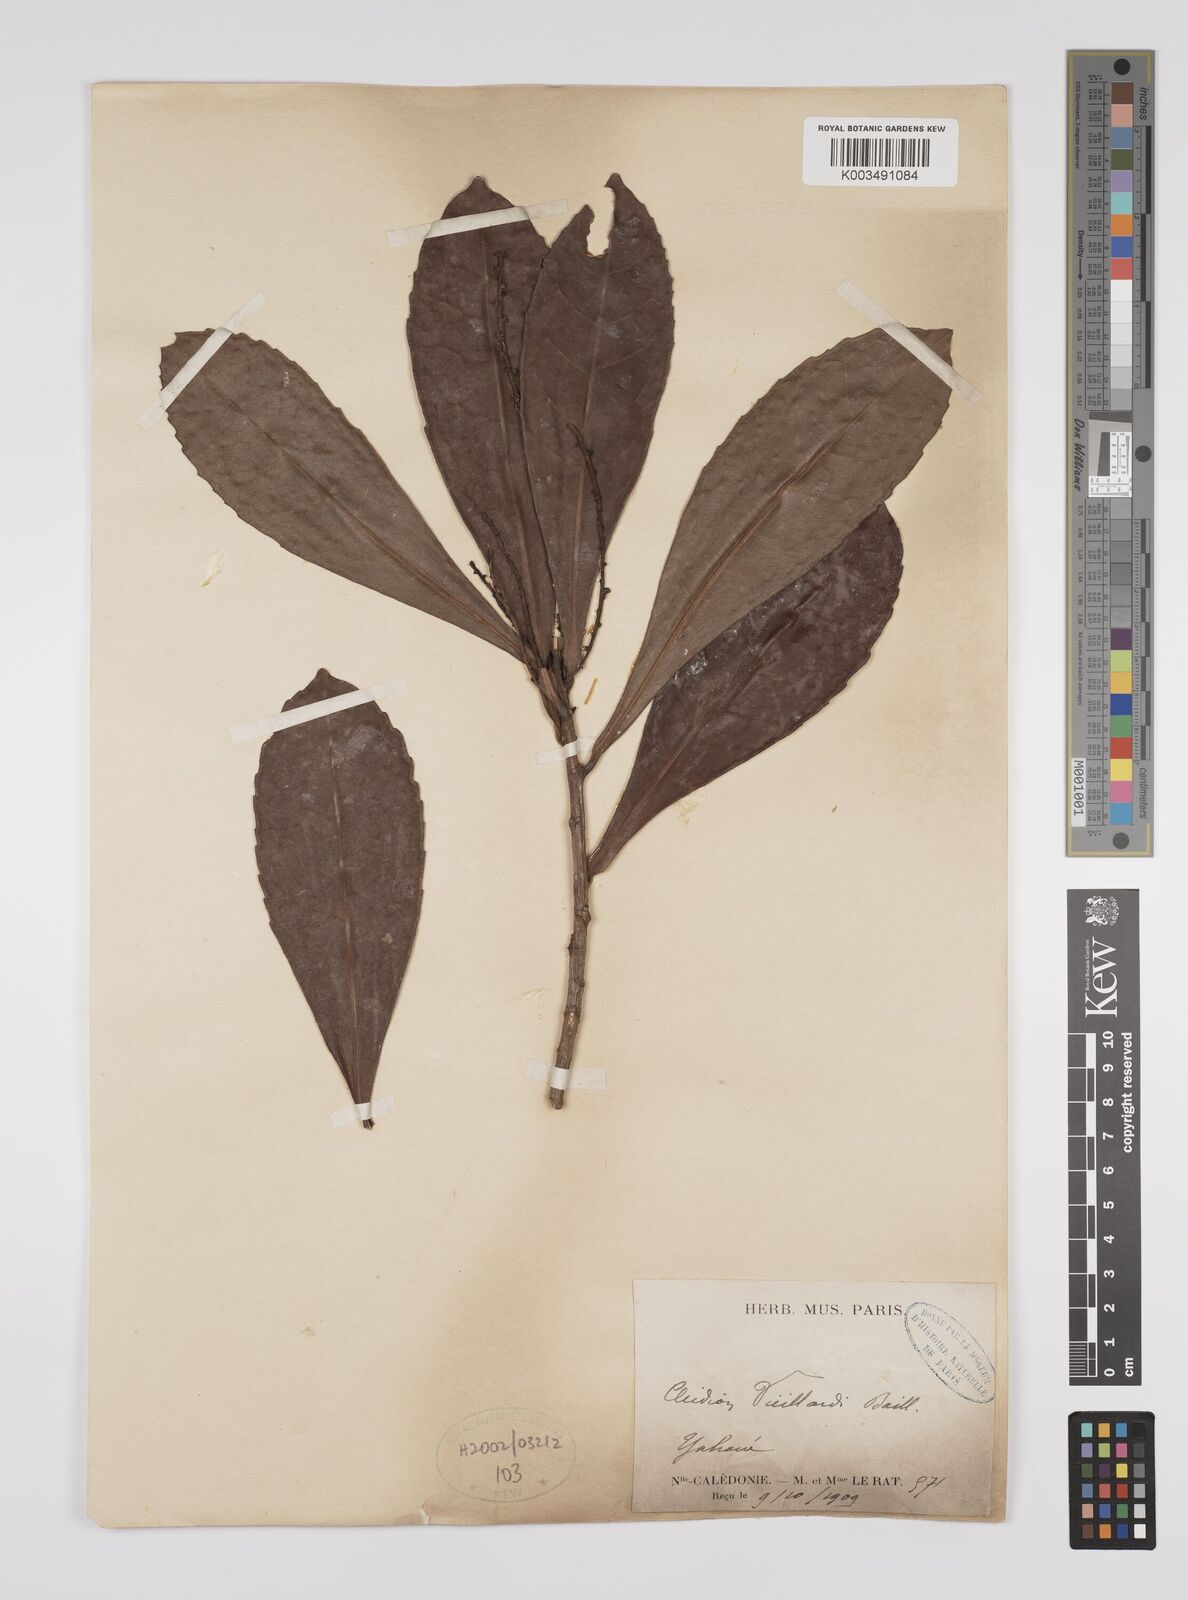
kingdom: Plantae
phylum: Tracheophyta
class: Magnoliopsida
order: Malpighiales
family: Euphorbiaceae
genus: Cleidion
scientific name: Cleidion vieillardii
